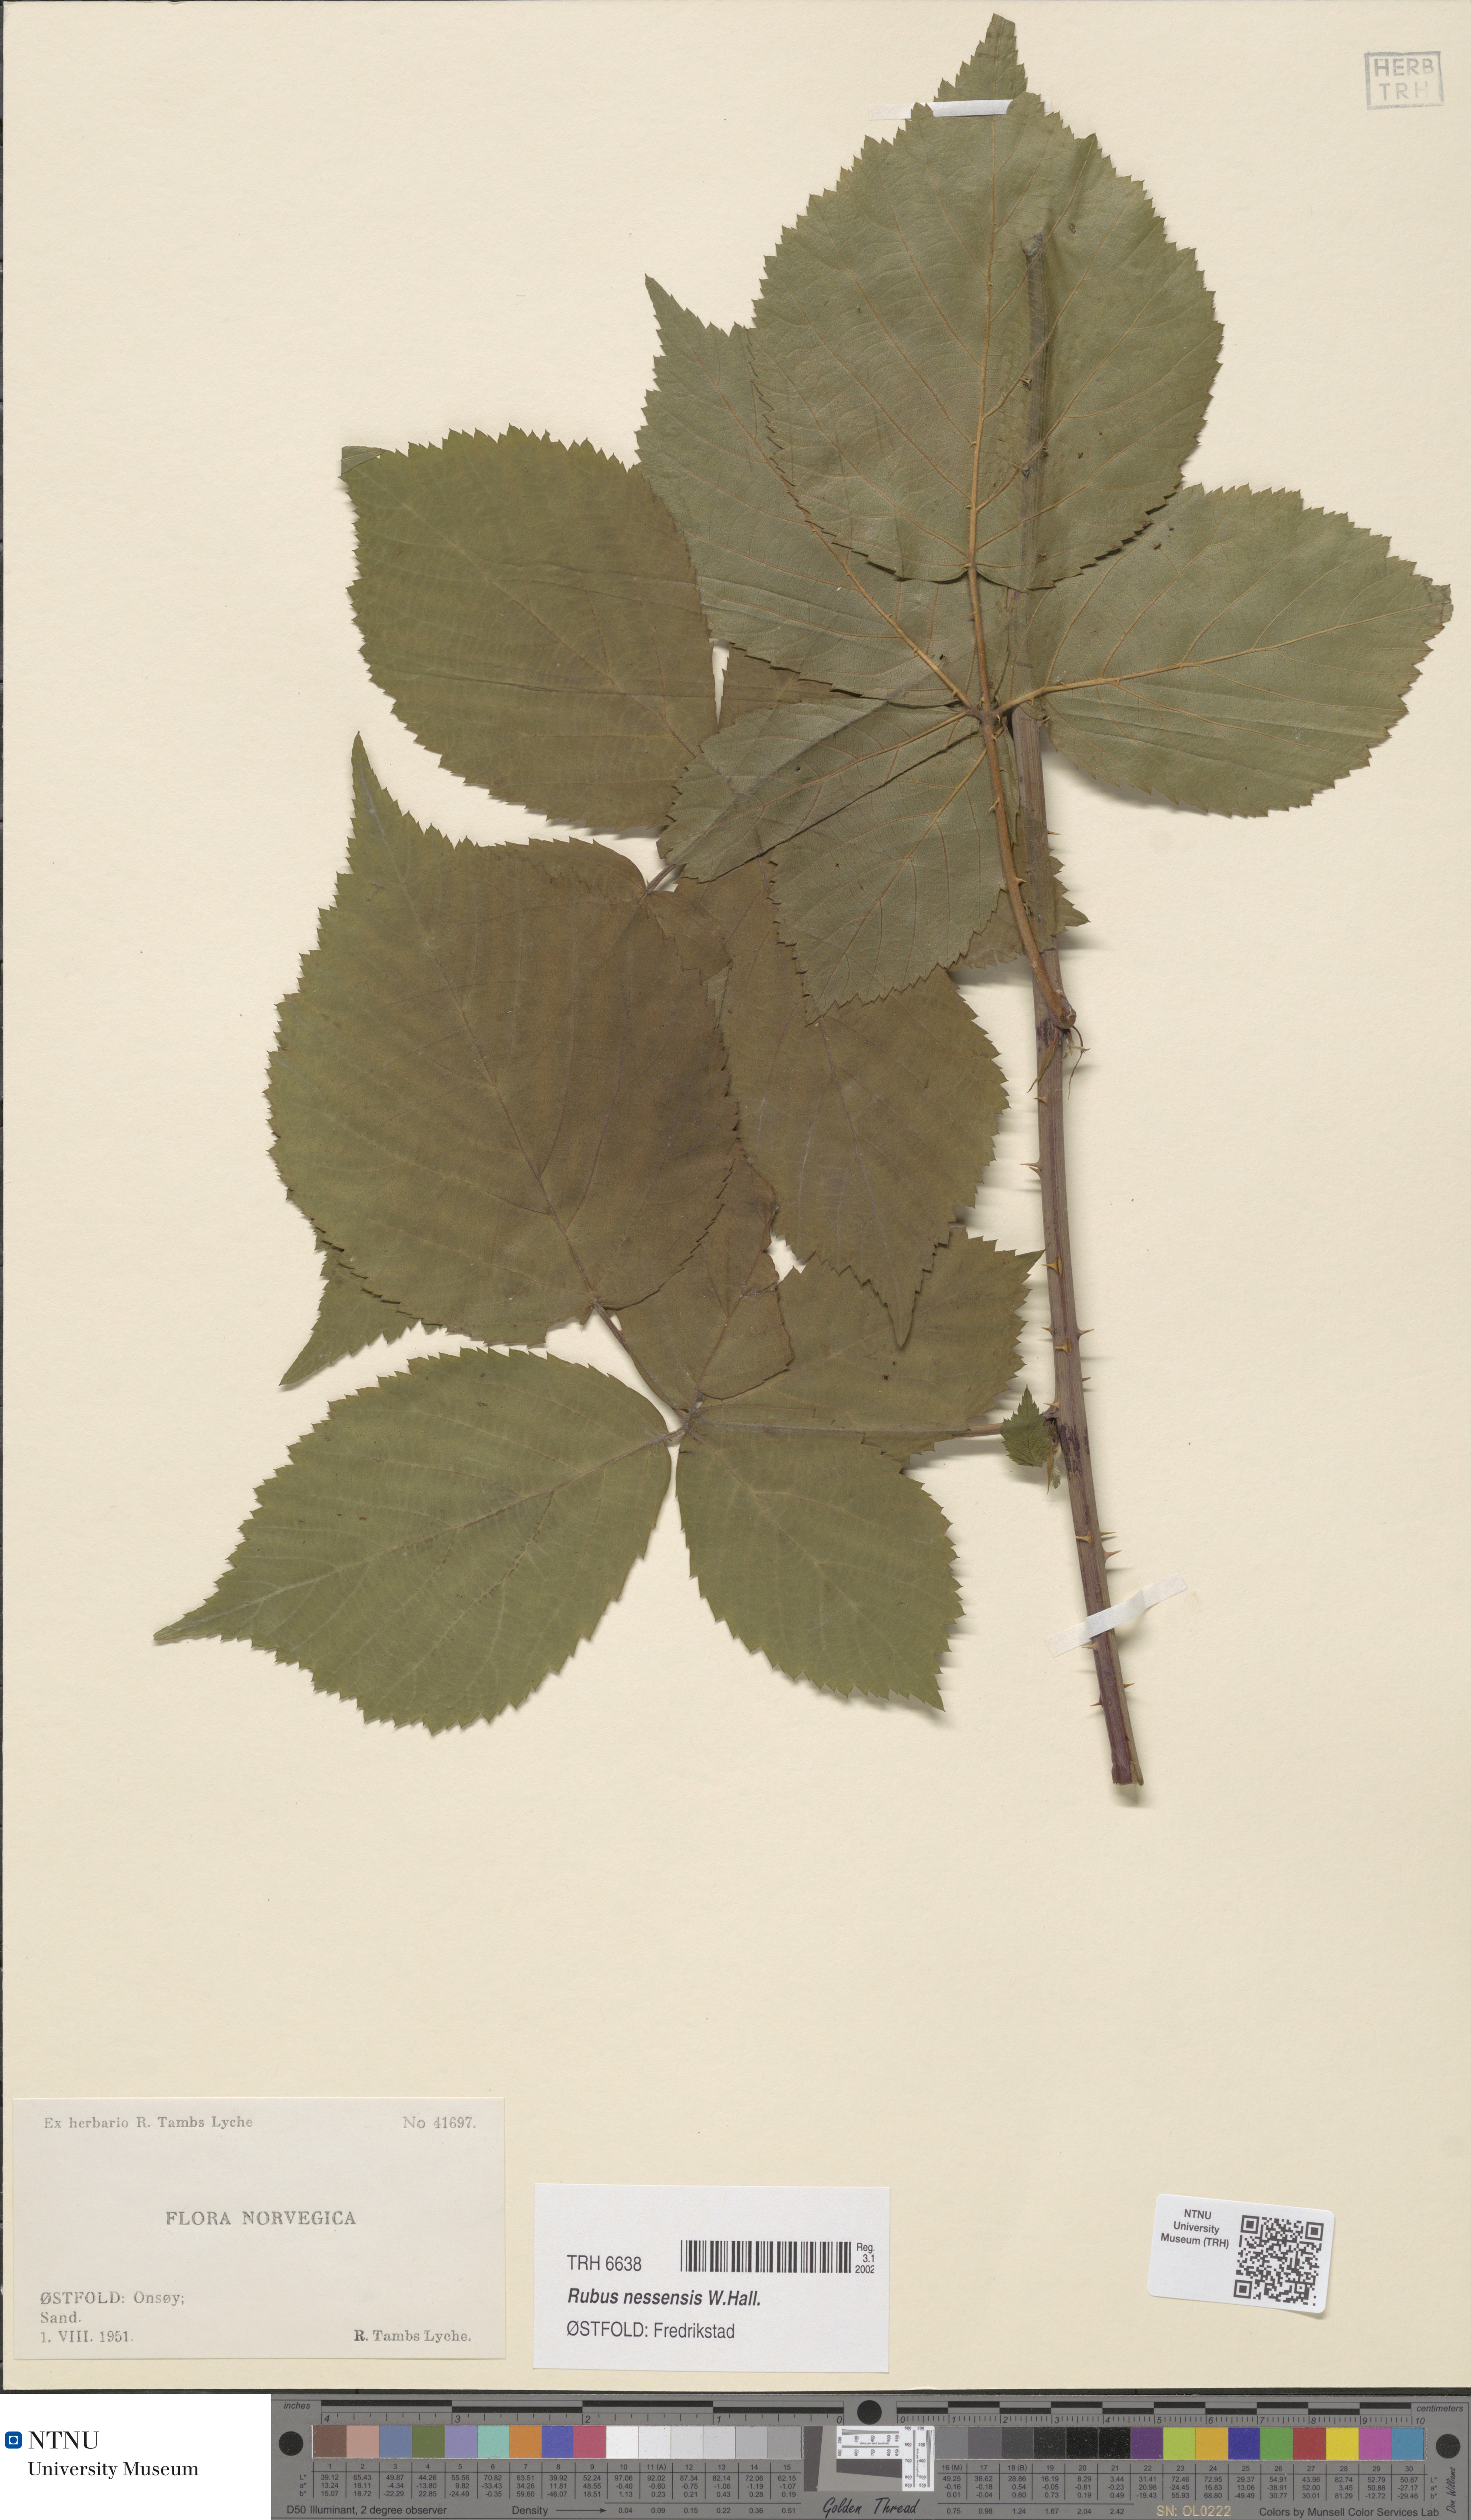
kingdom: Plantae
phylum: Tracheophyta
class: Magnoliopsida
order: Rosales
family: Rosaceae
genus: Rubus
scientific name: Rubus polonicus
